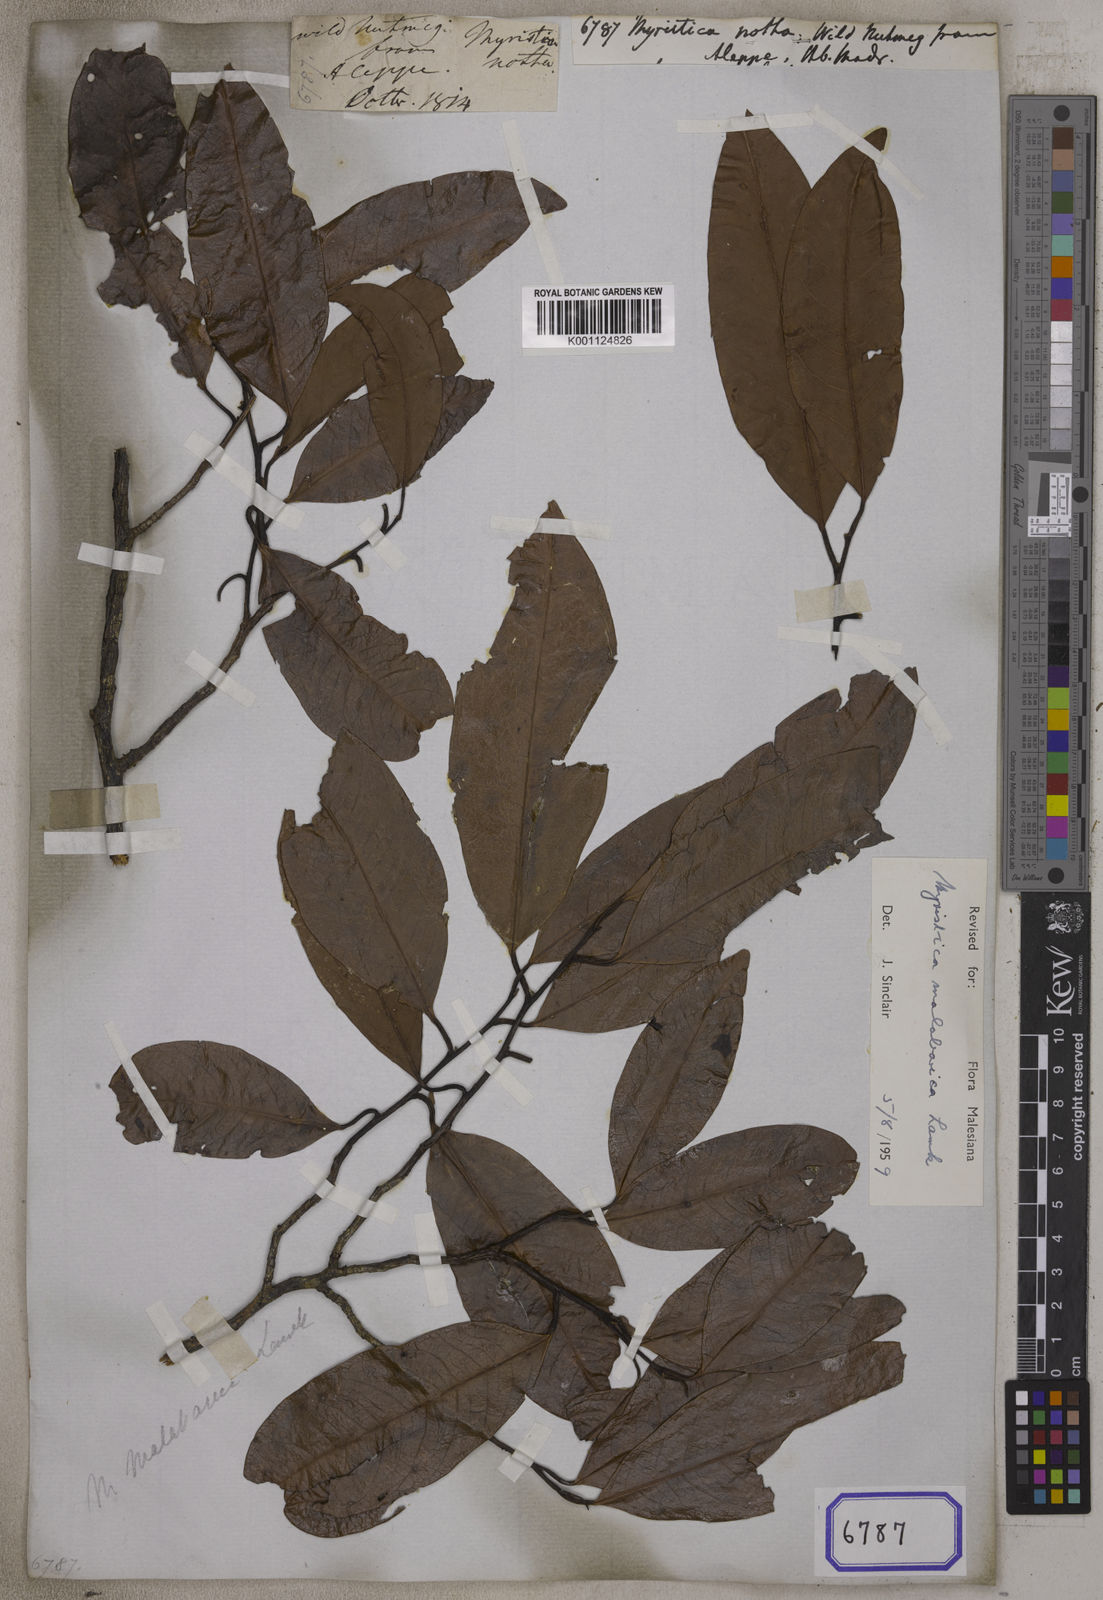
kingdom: Plantae
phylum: Tracheophyta
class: Magnoliopsida
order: Magnoliales
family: Myristicaceae
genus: Myristica
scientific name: Myristica malabarica
